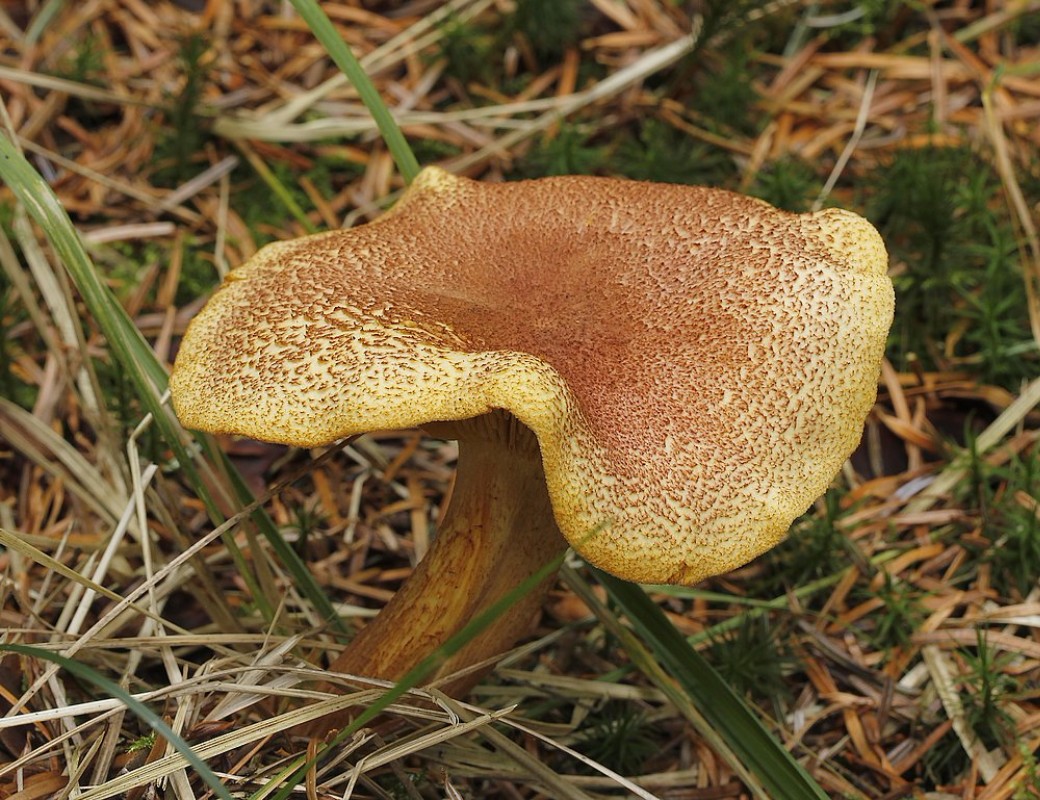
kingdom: Fungi
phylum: Basidiomycota
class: Agaricomycetes
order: Agaricales
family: Tricholomataceae
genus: Tricholomopsis
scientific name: Tricholomopsis rutilans
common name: purpur-væbnerhat
